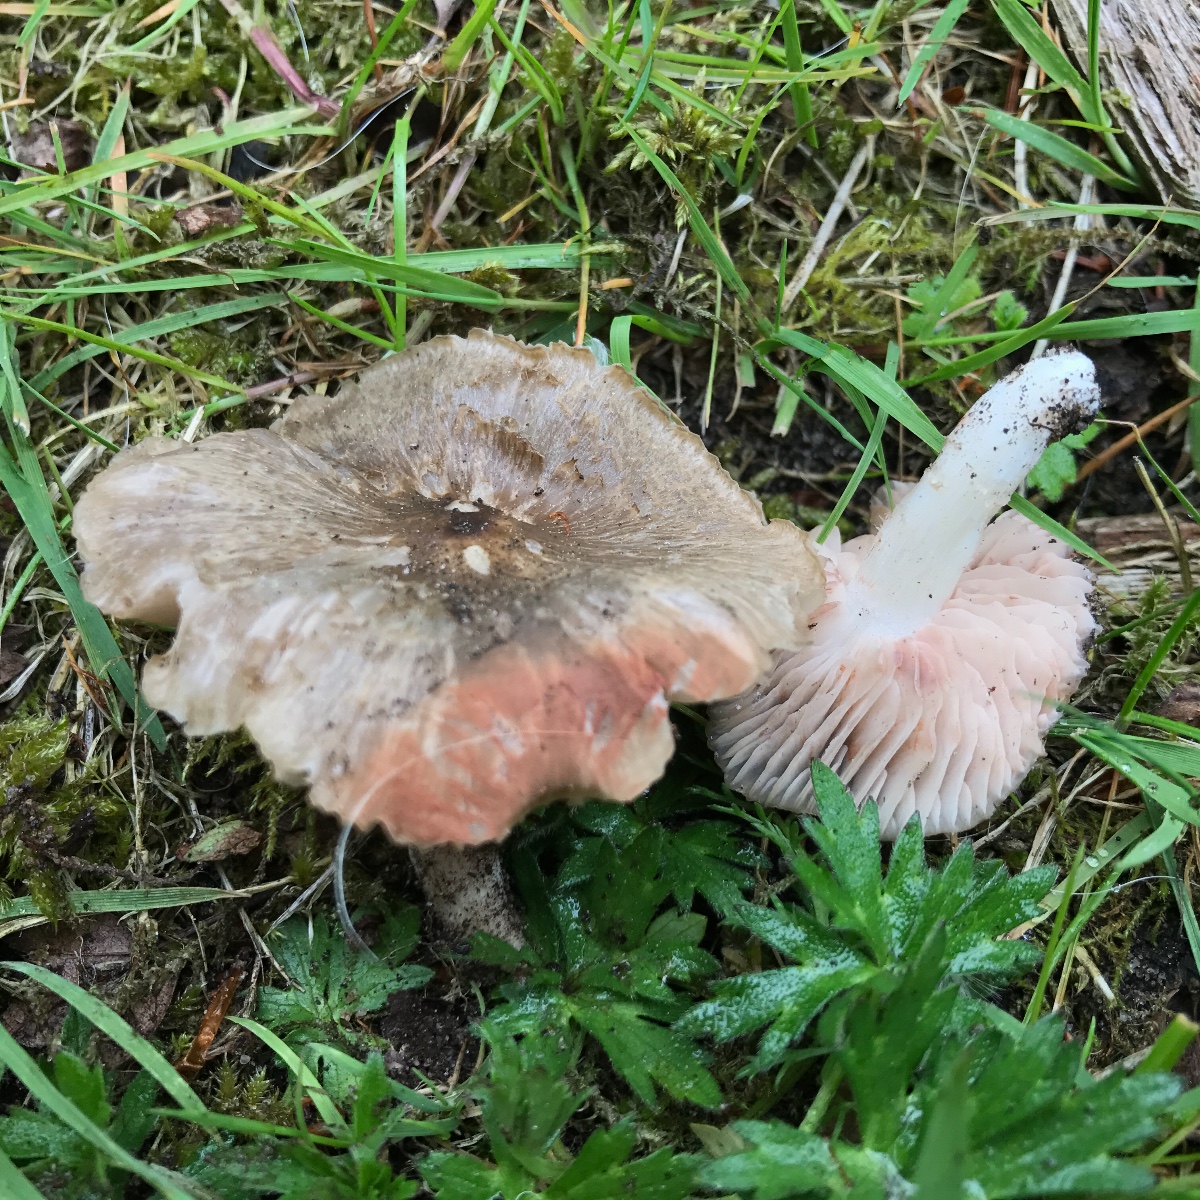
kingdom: Fungi
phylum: Basidiomycota
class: Agaricomycetes
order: Agaricales
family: Entolomataceae
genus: Entoloma
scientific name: Entoloma clypeatum
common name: flammet rødblad
